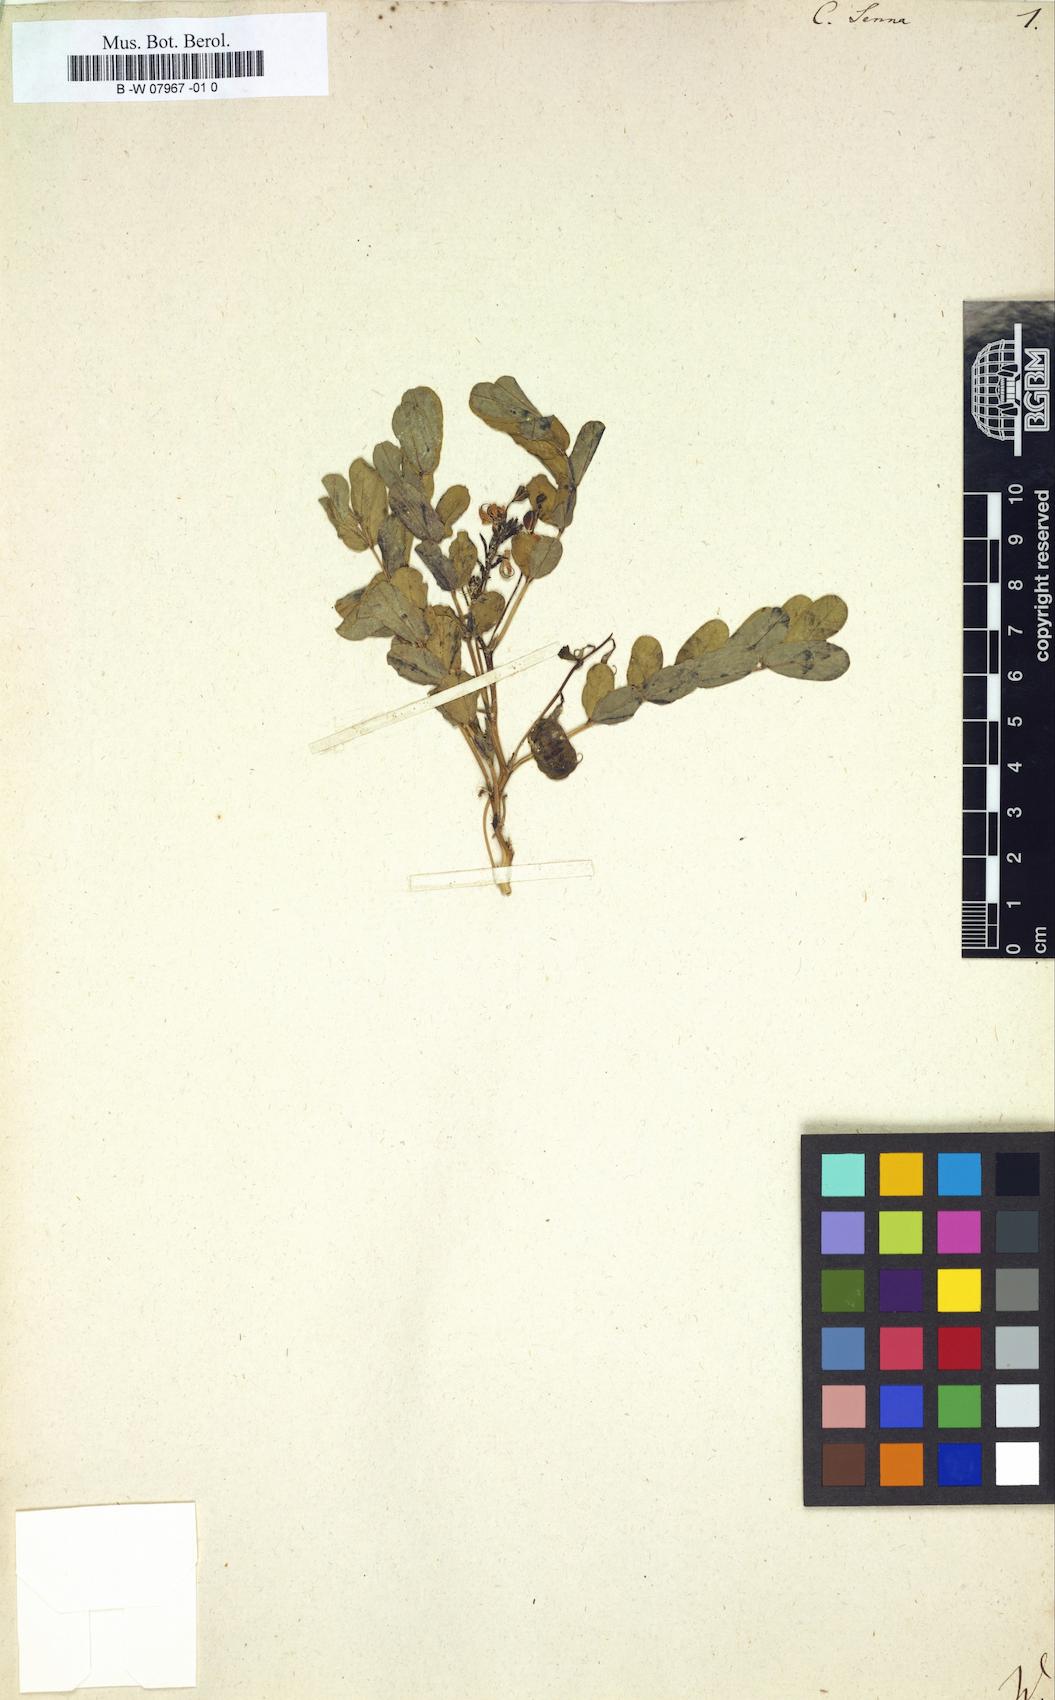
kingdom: Plantae
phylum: Tracheophyta
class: Magnoliopsida
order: Fabales
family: Fabaceae
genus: Senna
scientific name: Senna alexandrina
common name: True senna
